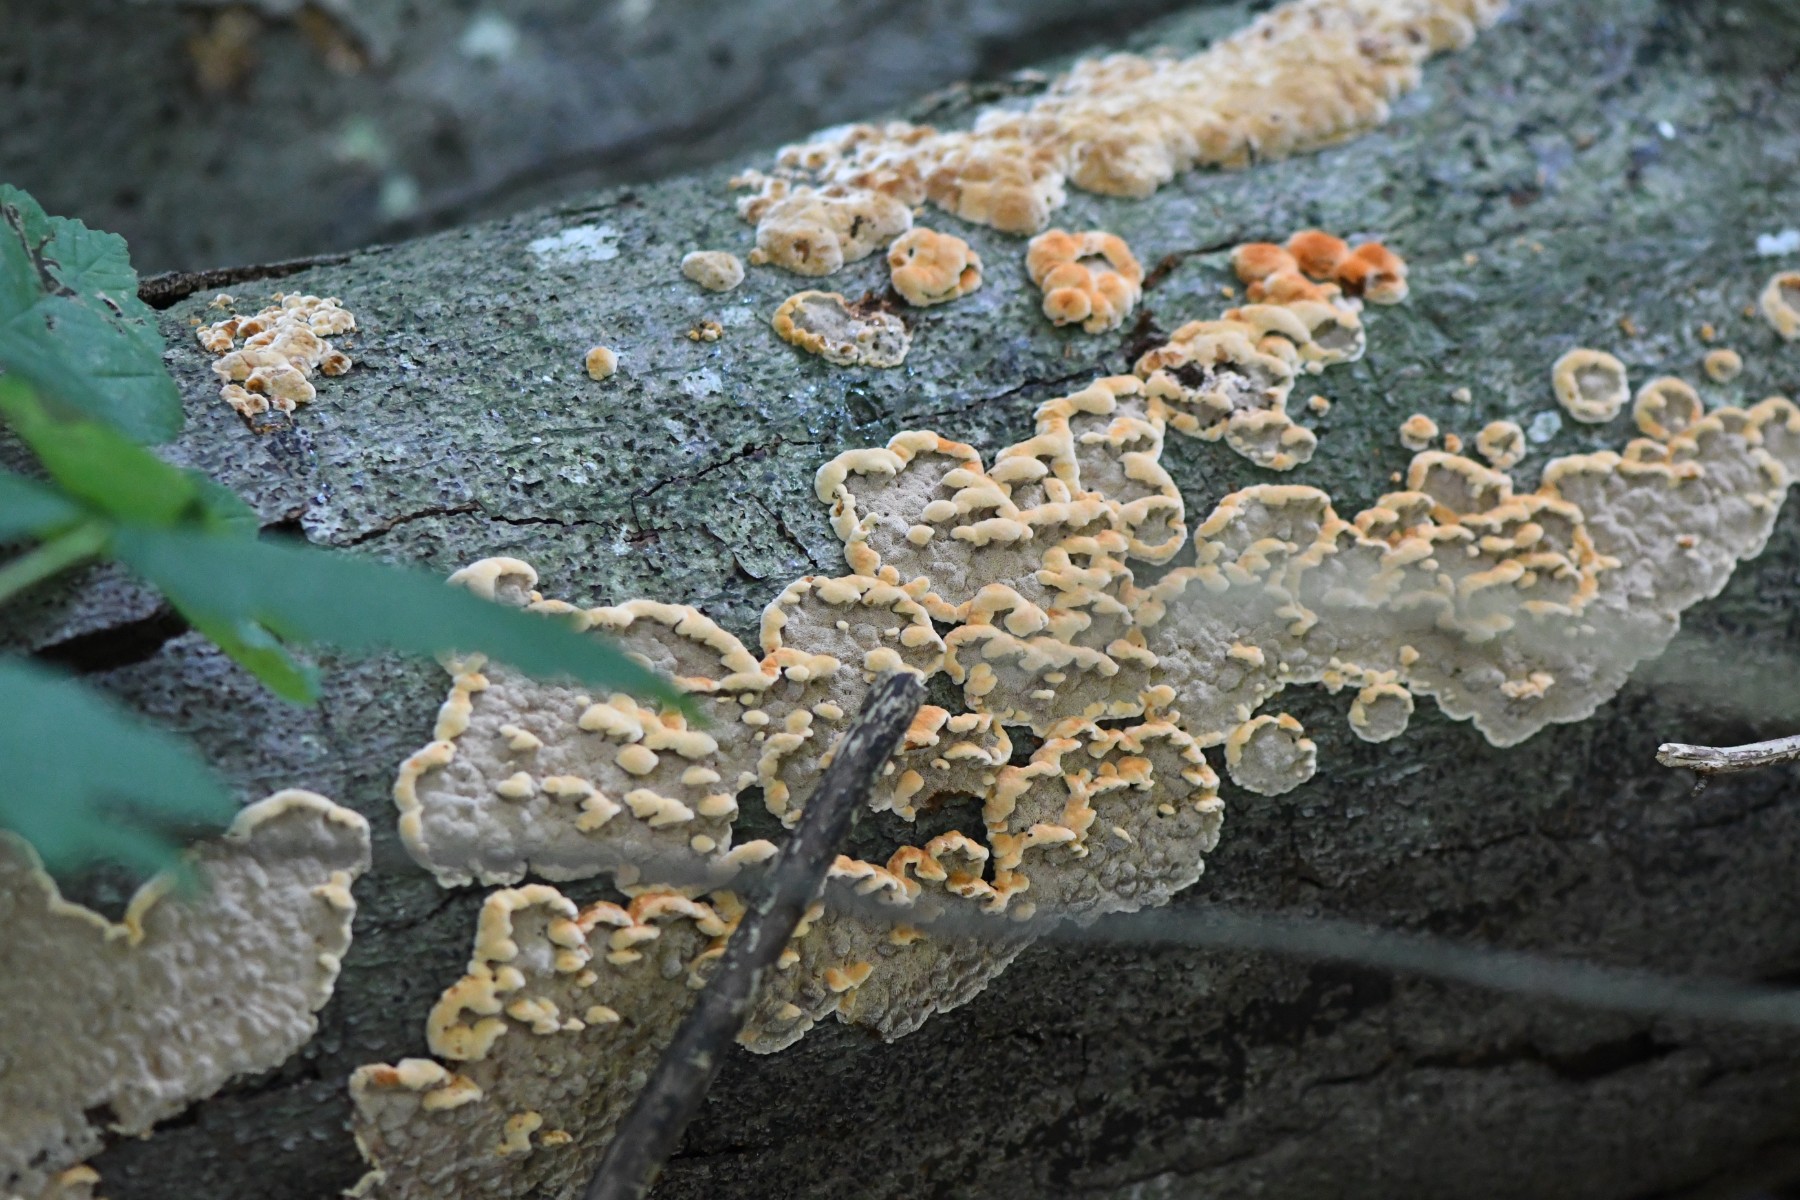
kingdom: Fungi
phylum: Basidiomycota
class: Agaricomycetes
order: Hymenochaetales
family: Hymenochaetaceae
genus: Mensularia
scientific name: Mensularia nodulosa
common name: bøge-spejlporesvamp
